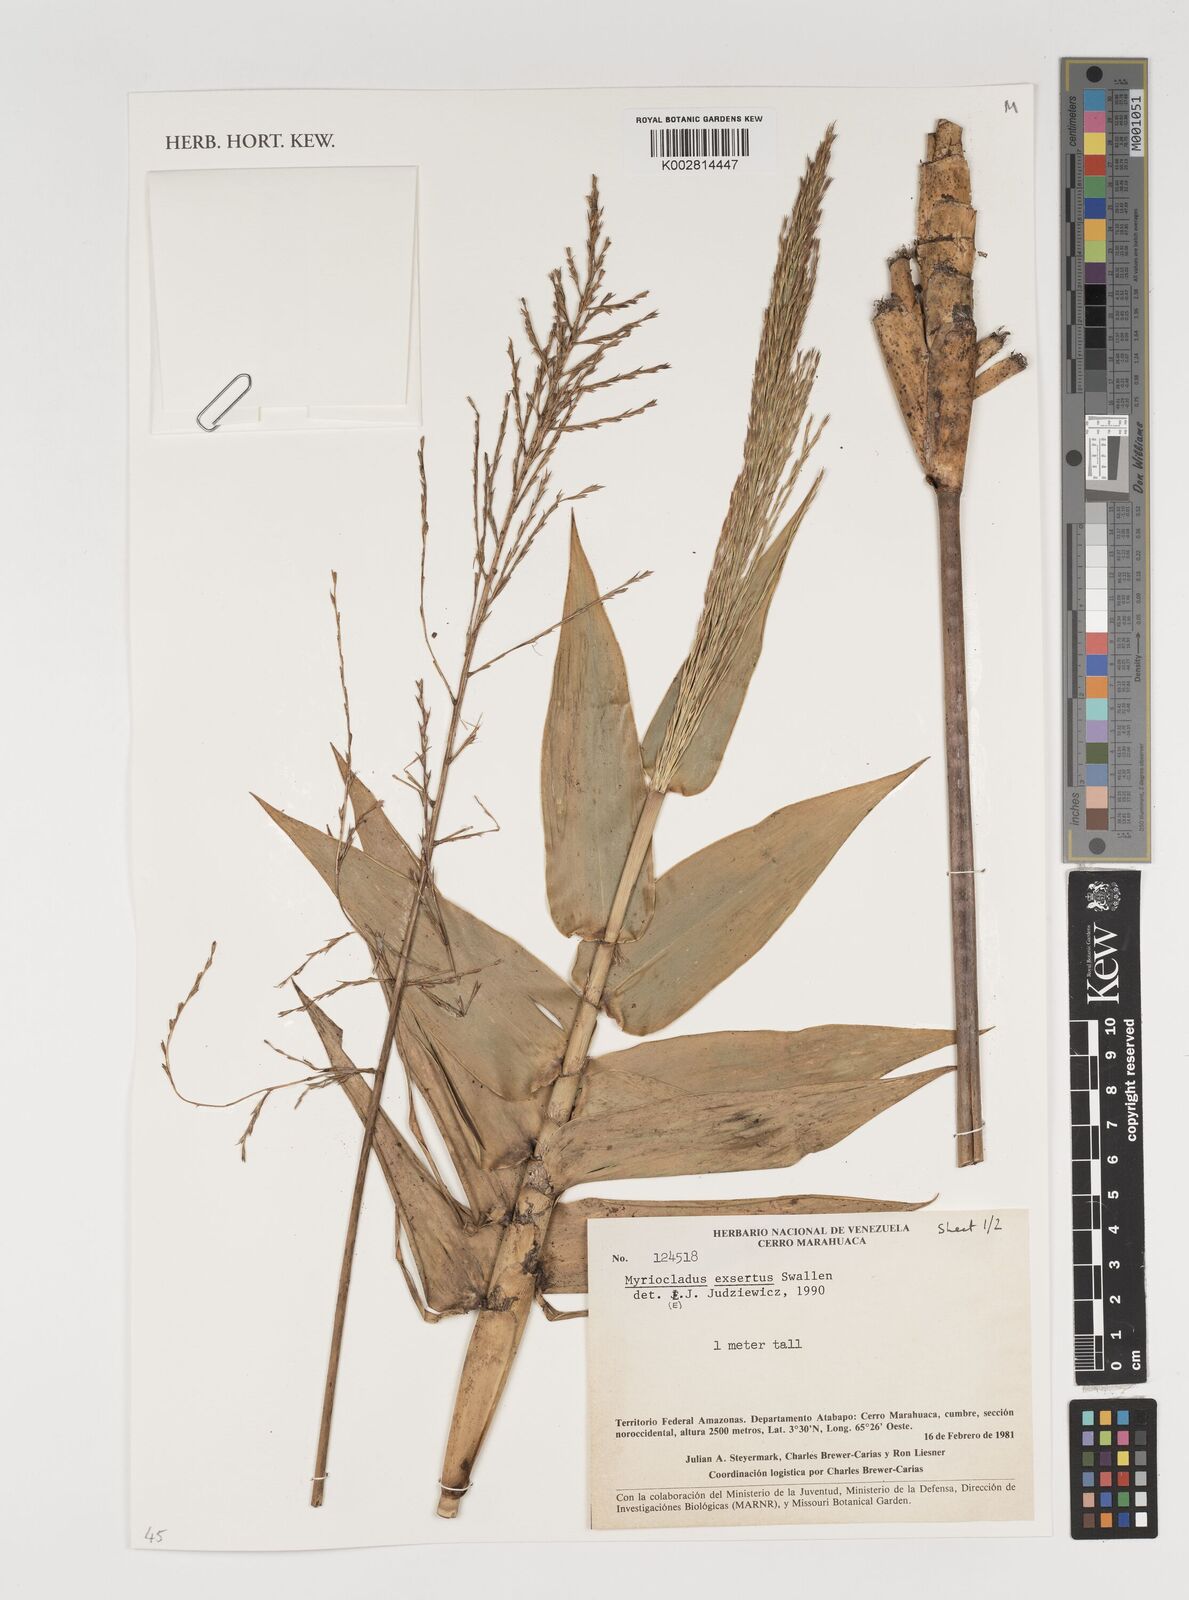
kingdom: Plantae
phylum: Tracheophyta
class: Liliopsida
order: Poales
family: Poaceae
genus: Myriocladus
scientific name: Myriocladus exsertus
